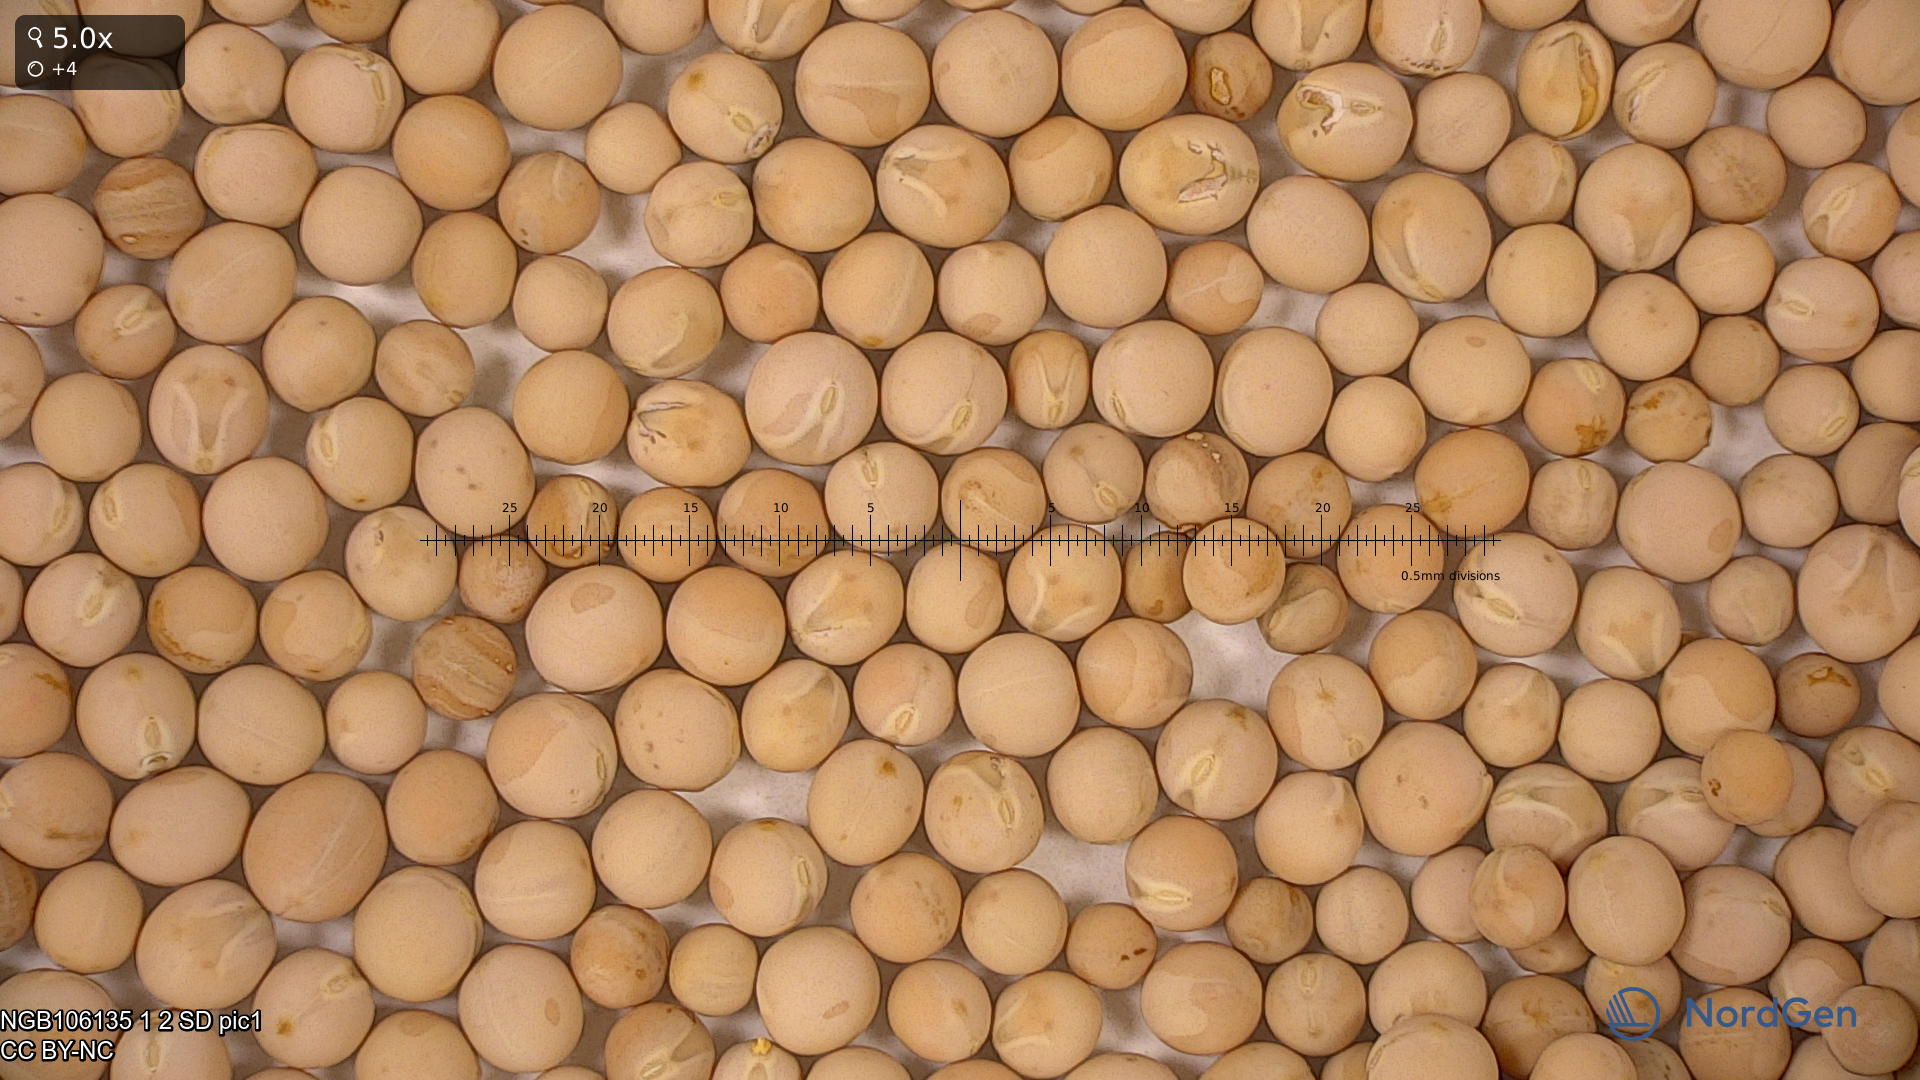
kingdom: Plantae
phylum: Tracheophyta
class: Magnoliopsida
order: Fabales
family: Fabaceae
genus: Lathyrus
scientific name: Lathyrus oleraceus
